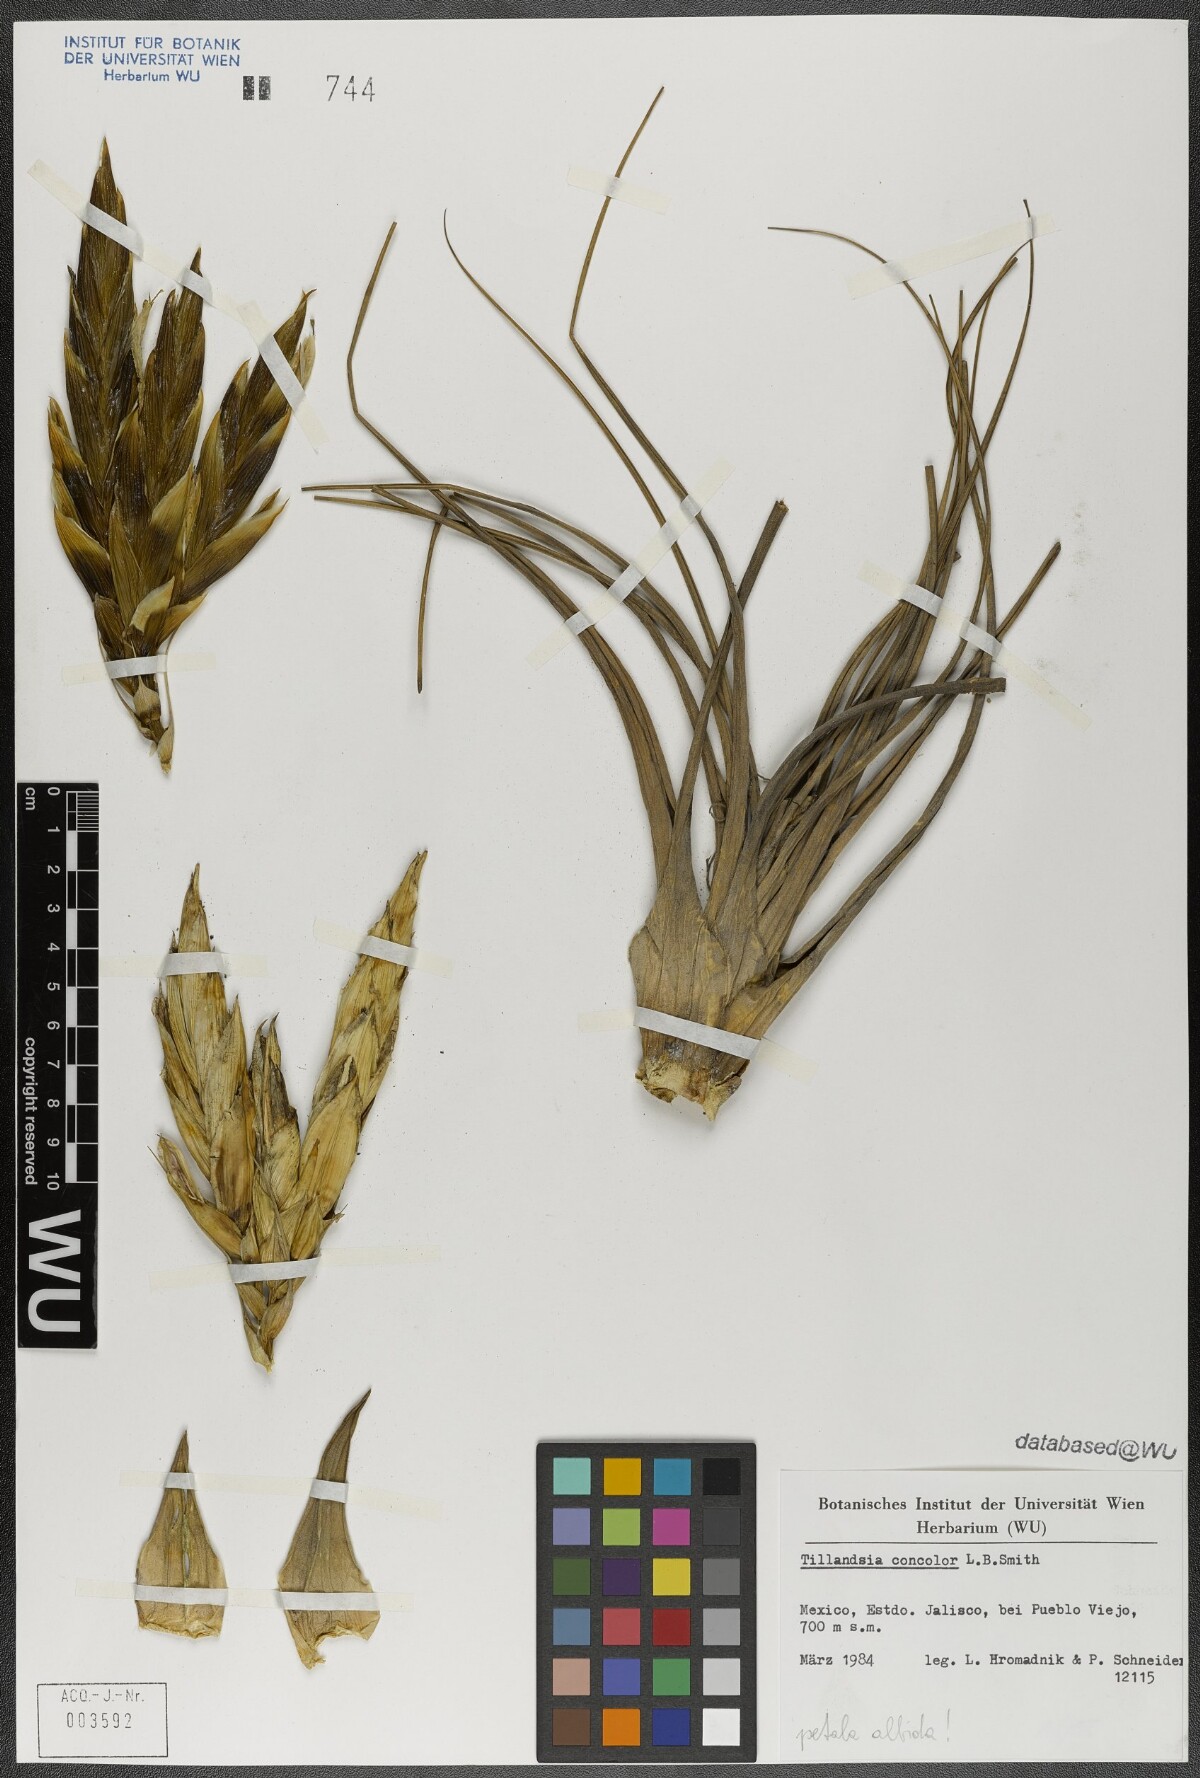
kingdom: Plantae
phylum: Tracheophyta
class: Liliopsida
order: Poales
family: Bromeliaceae
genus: Tillandsia
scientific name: Tillandsia concolor
